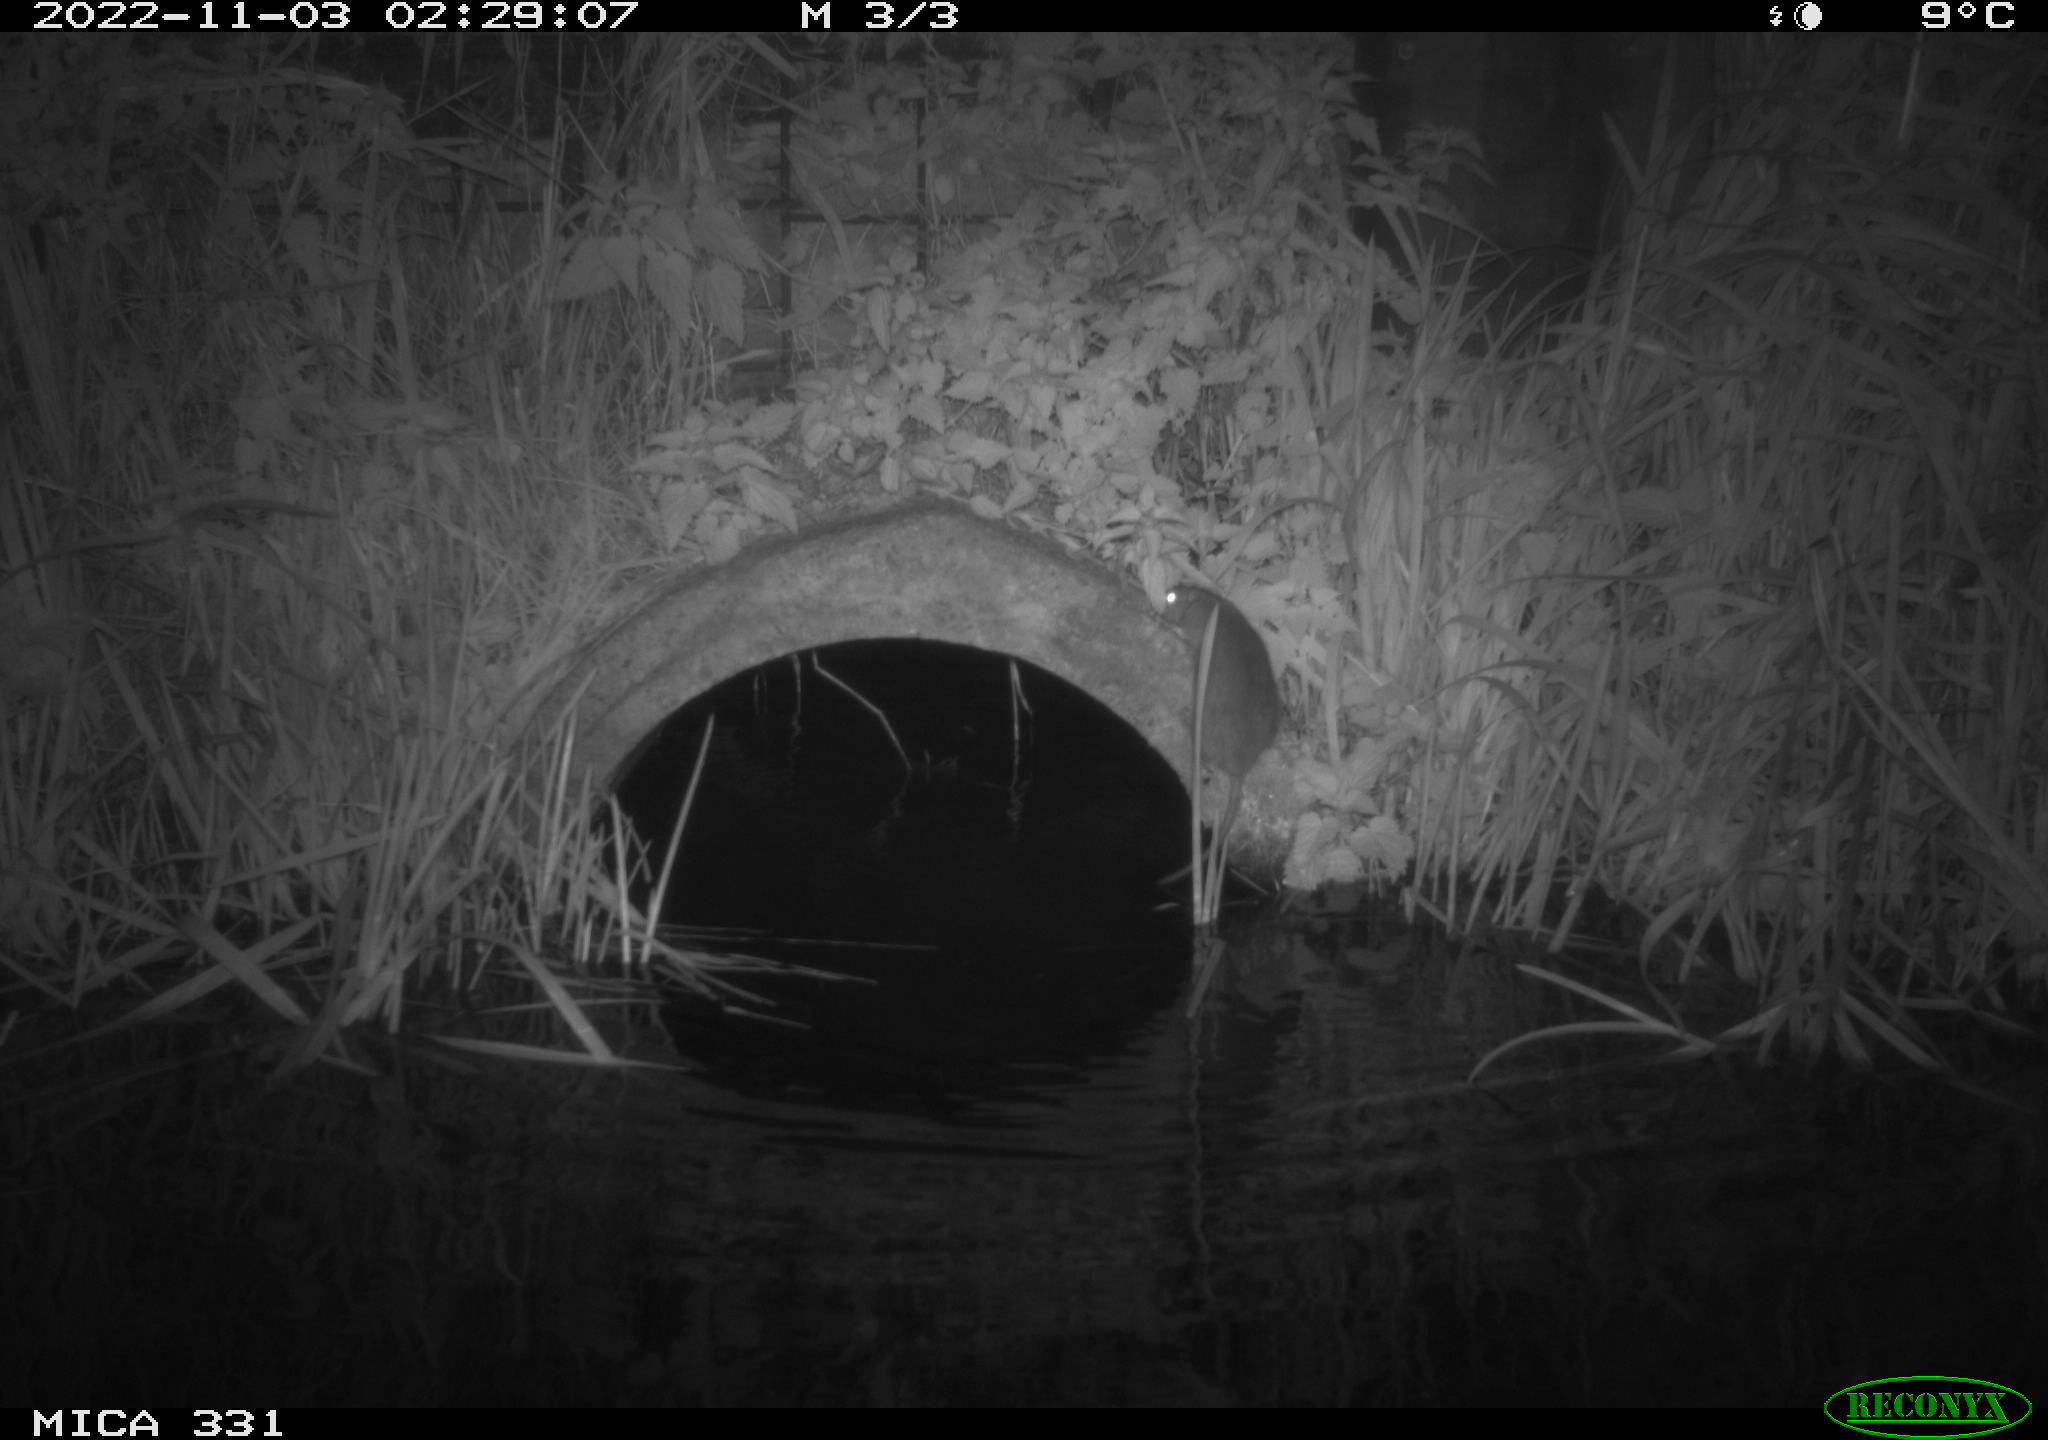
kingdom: Animalia
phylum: Chordata
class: Mammalia
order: Rodentia
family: Muridae
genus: Rattus
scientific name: Rattus norvegicus
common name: Brown rat
